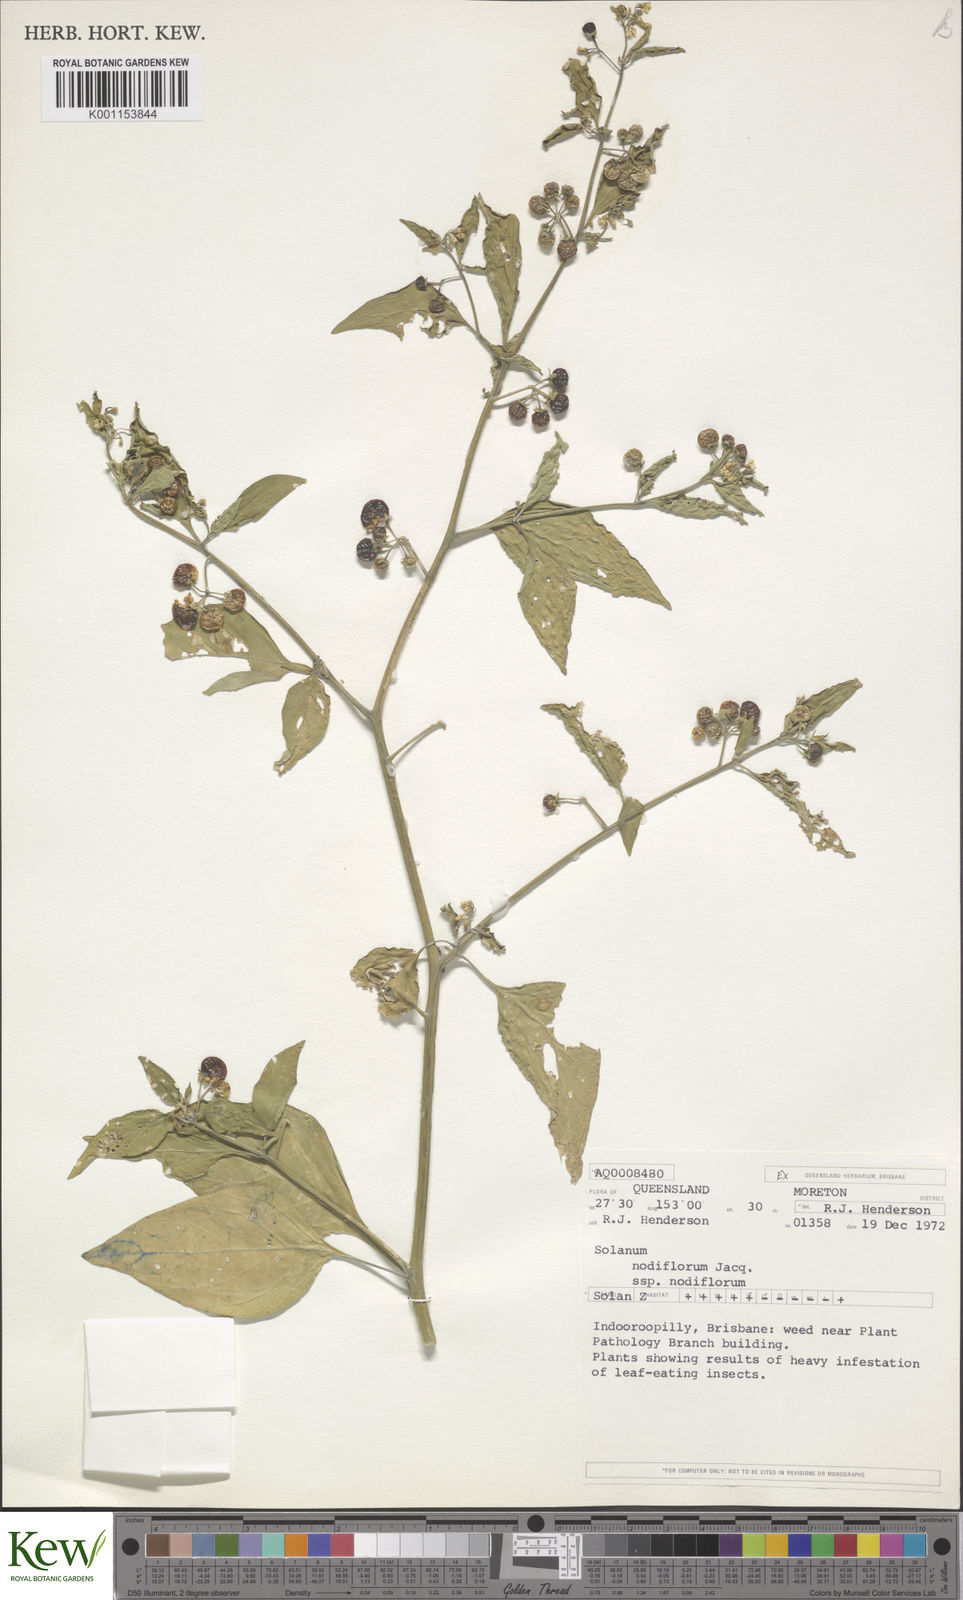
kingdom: Plantae
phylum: Tracheophyta
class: Magnoliopsida
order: Solanales
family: Solanaceae
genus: Solanum
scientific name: Solanum americanum
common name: American black nightshade
